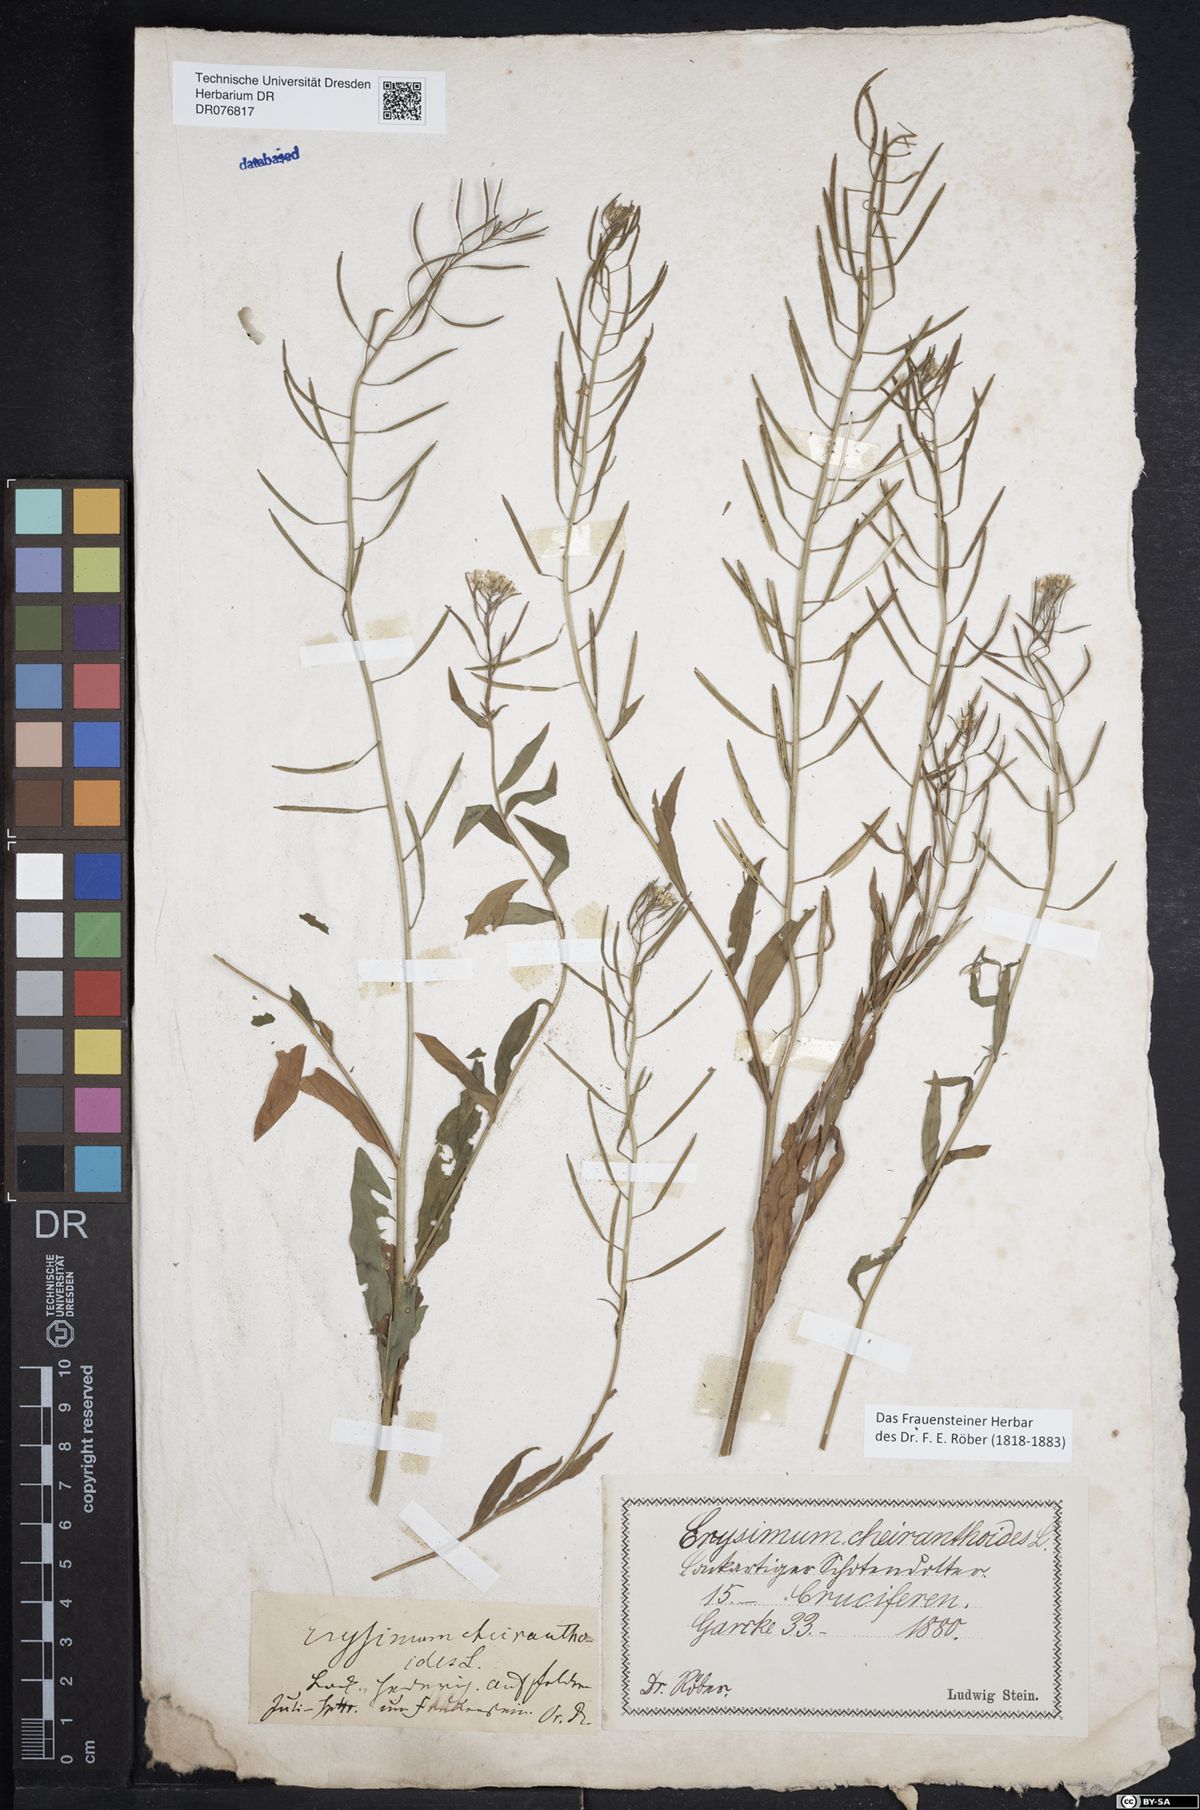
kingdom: Plantae
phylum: Tracheophyta
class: Magnoliopsida
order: Brassicales
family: Brassicaceae
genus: Brassica
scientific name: Brassica rapa
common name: Field mustard
